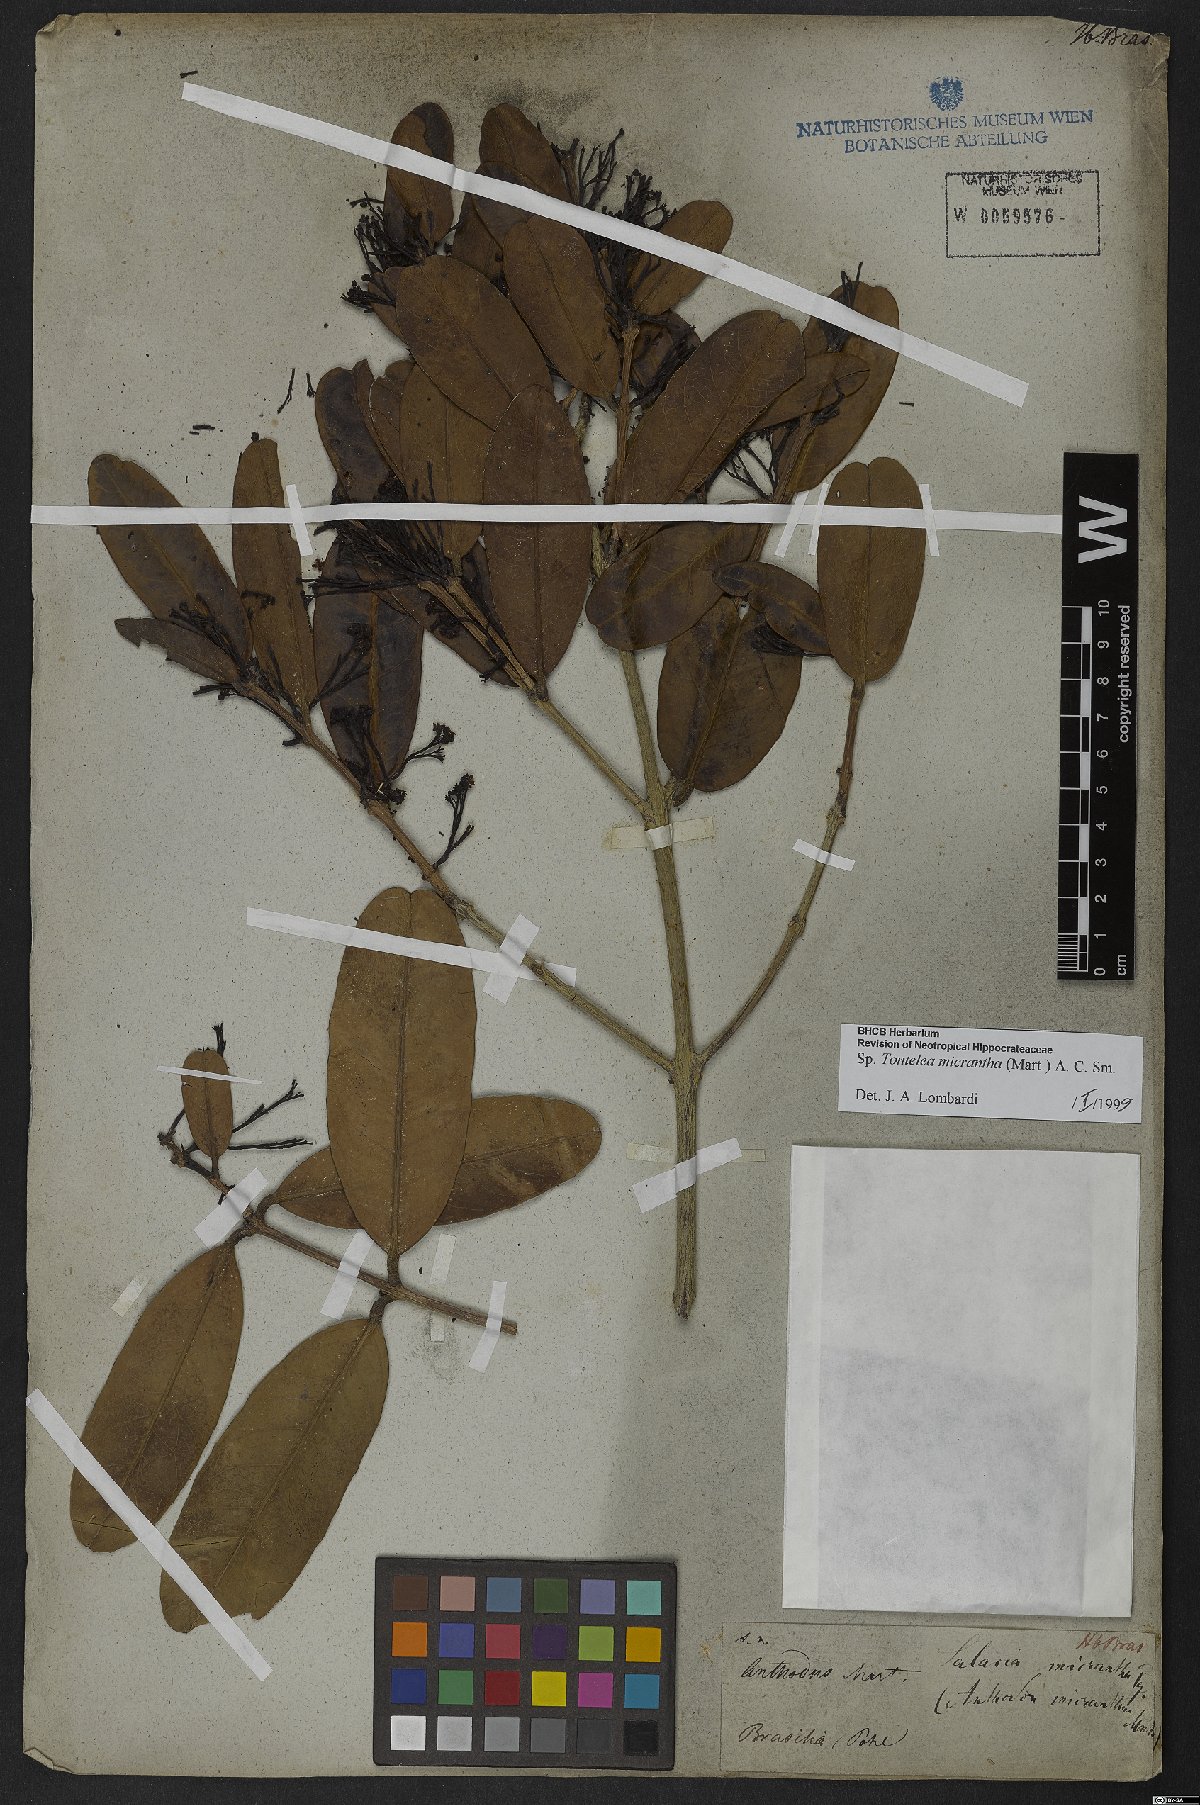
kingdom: Plantae
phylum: Tracheophyta
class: Magnoliopsida
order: Celastrales
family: Celastraceae
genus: Tontelea
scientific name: Tontelea micrantha
